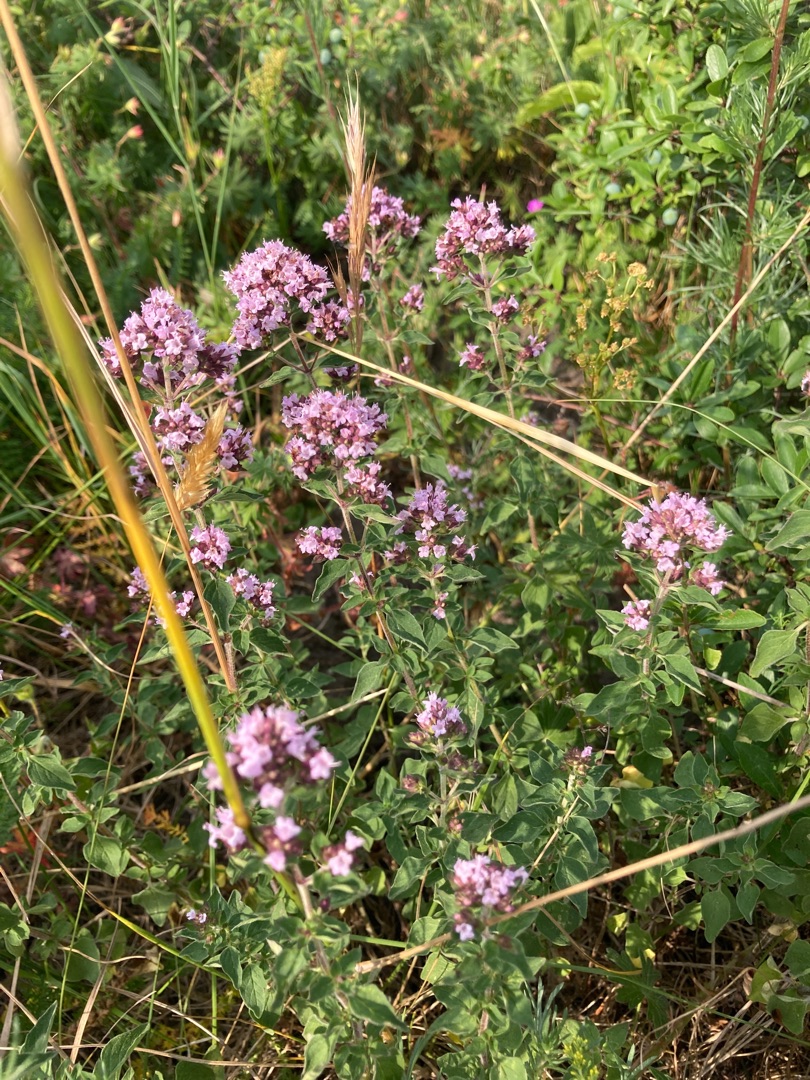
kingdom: Plantae
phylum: Tracheophyta
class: Magnoliopsida
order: Lamiales
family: Lamiaceae
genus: Origanum
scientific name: Origanum vulgare
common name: Merian
